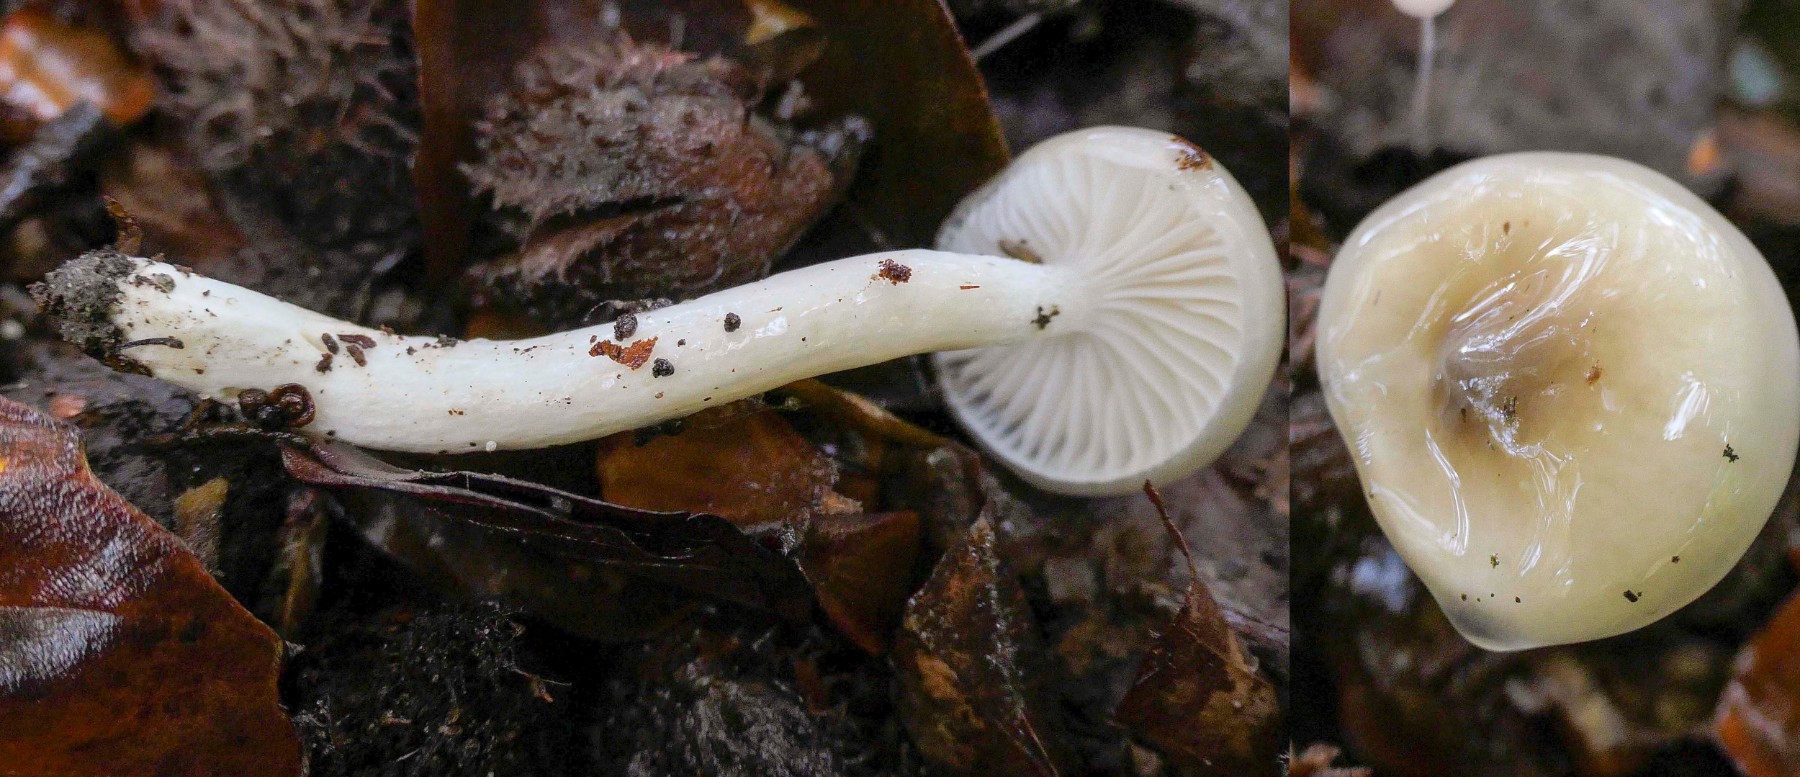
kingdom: Fungi
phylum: Basidiomycota
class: Agaricomycetes
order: Agaricales
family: Hygrophoraceae
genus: Hygrophorus
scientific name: Hygrophorus mesotephrus
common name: askegrå sneglehat
